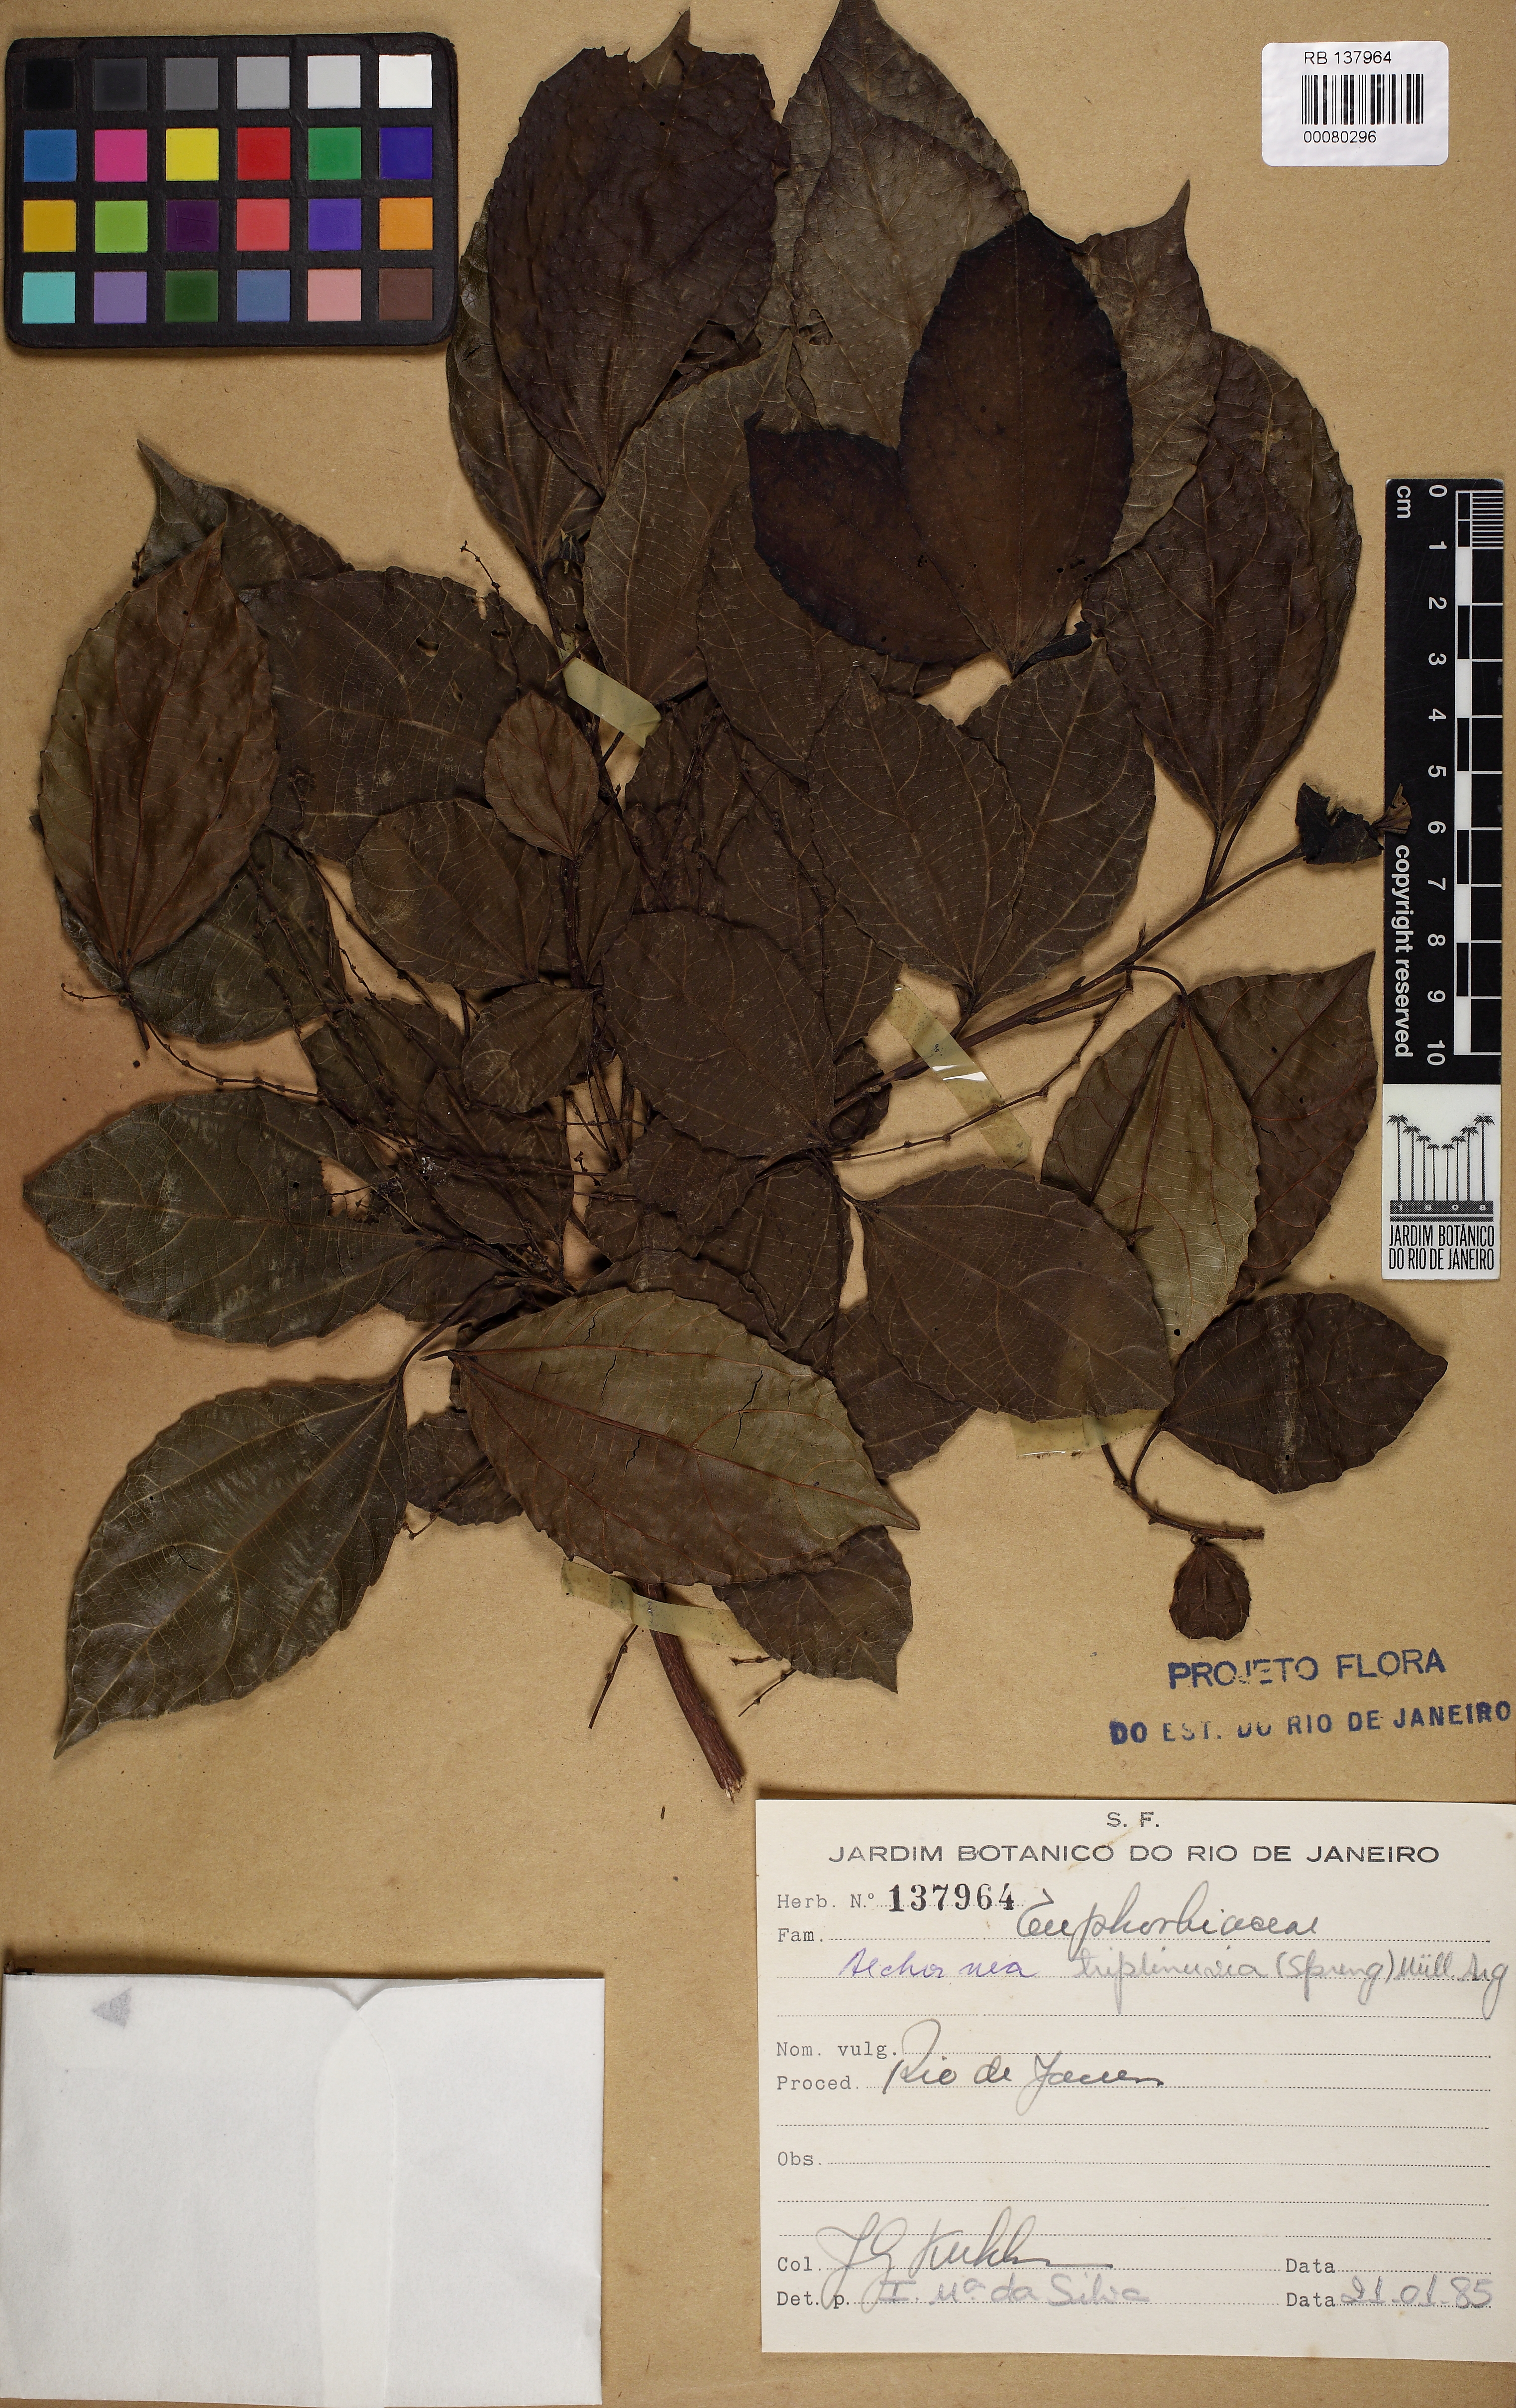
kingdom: Plantae
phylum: Tracheophyta
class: Magnoliopsida
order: Malpighiales
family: Euphorbiaceae
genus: Alchornea
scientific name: Alchornea triplinervia
